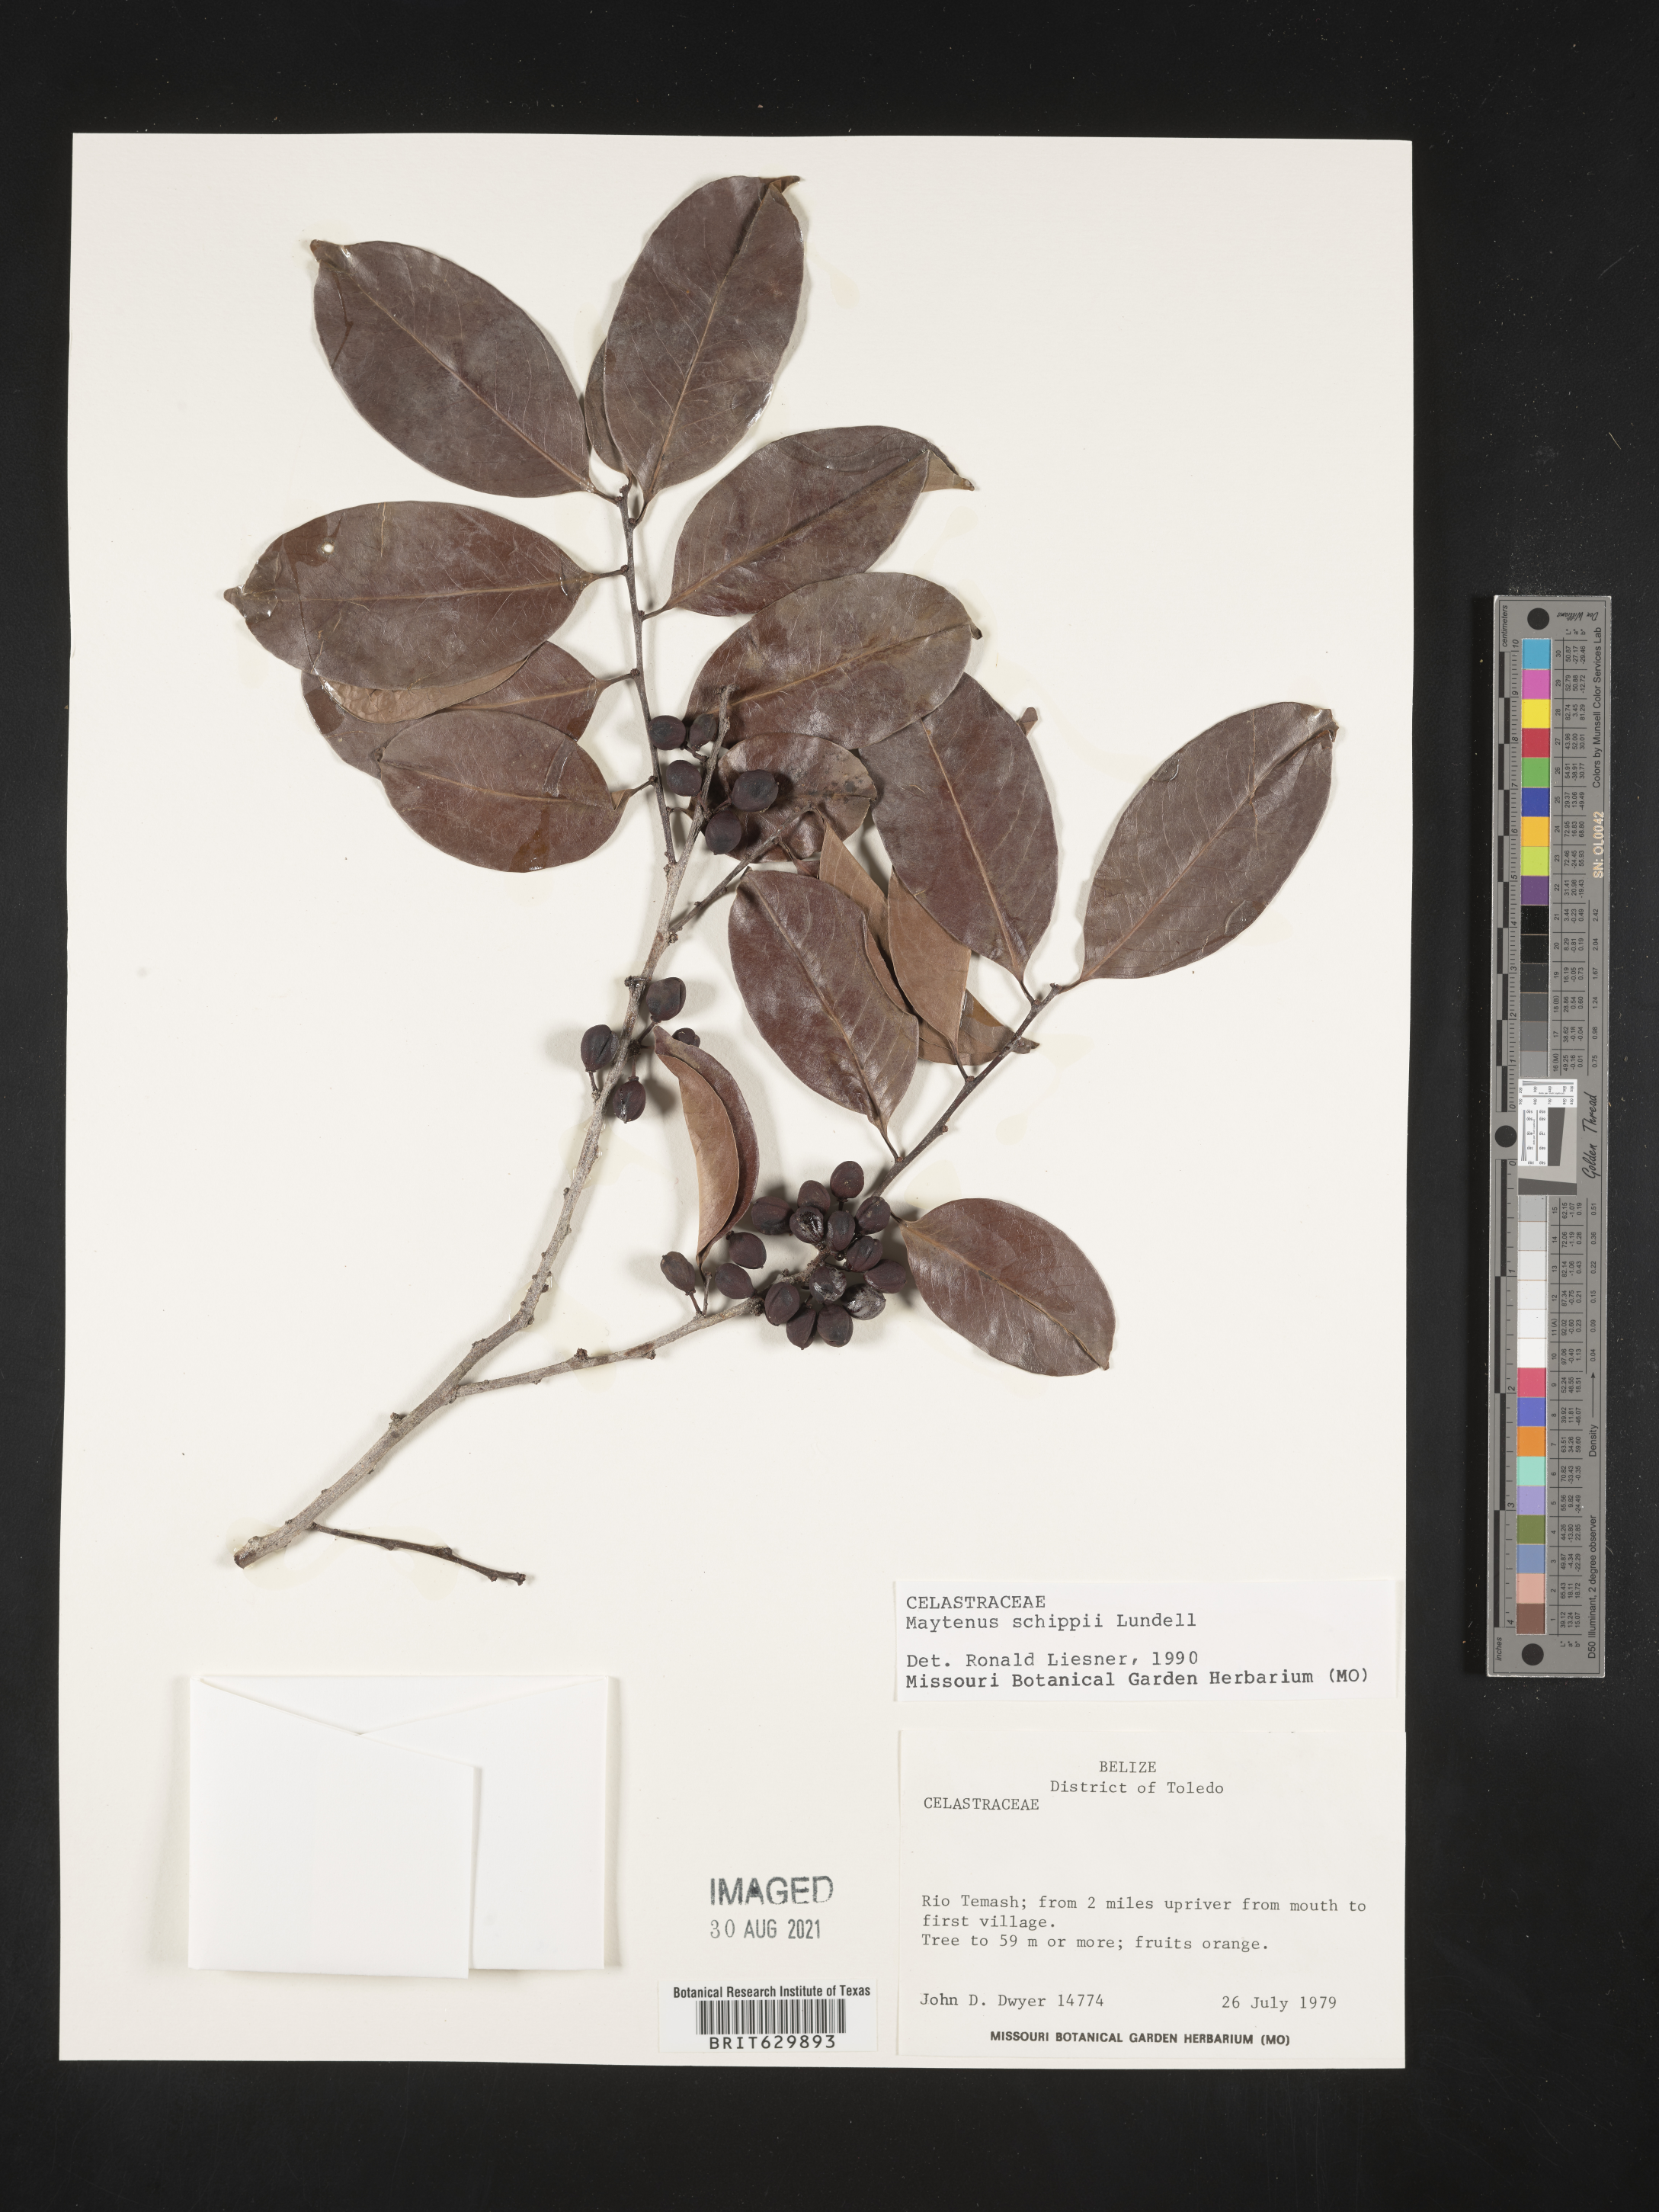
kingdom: Plantae
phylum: Tracheophyta
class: Magnoliopsida
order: Celastrales
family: Celastraceae
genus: Monteverdia
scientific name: Monteverdia schippii
